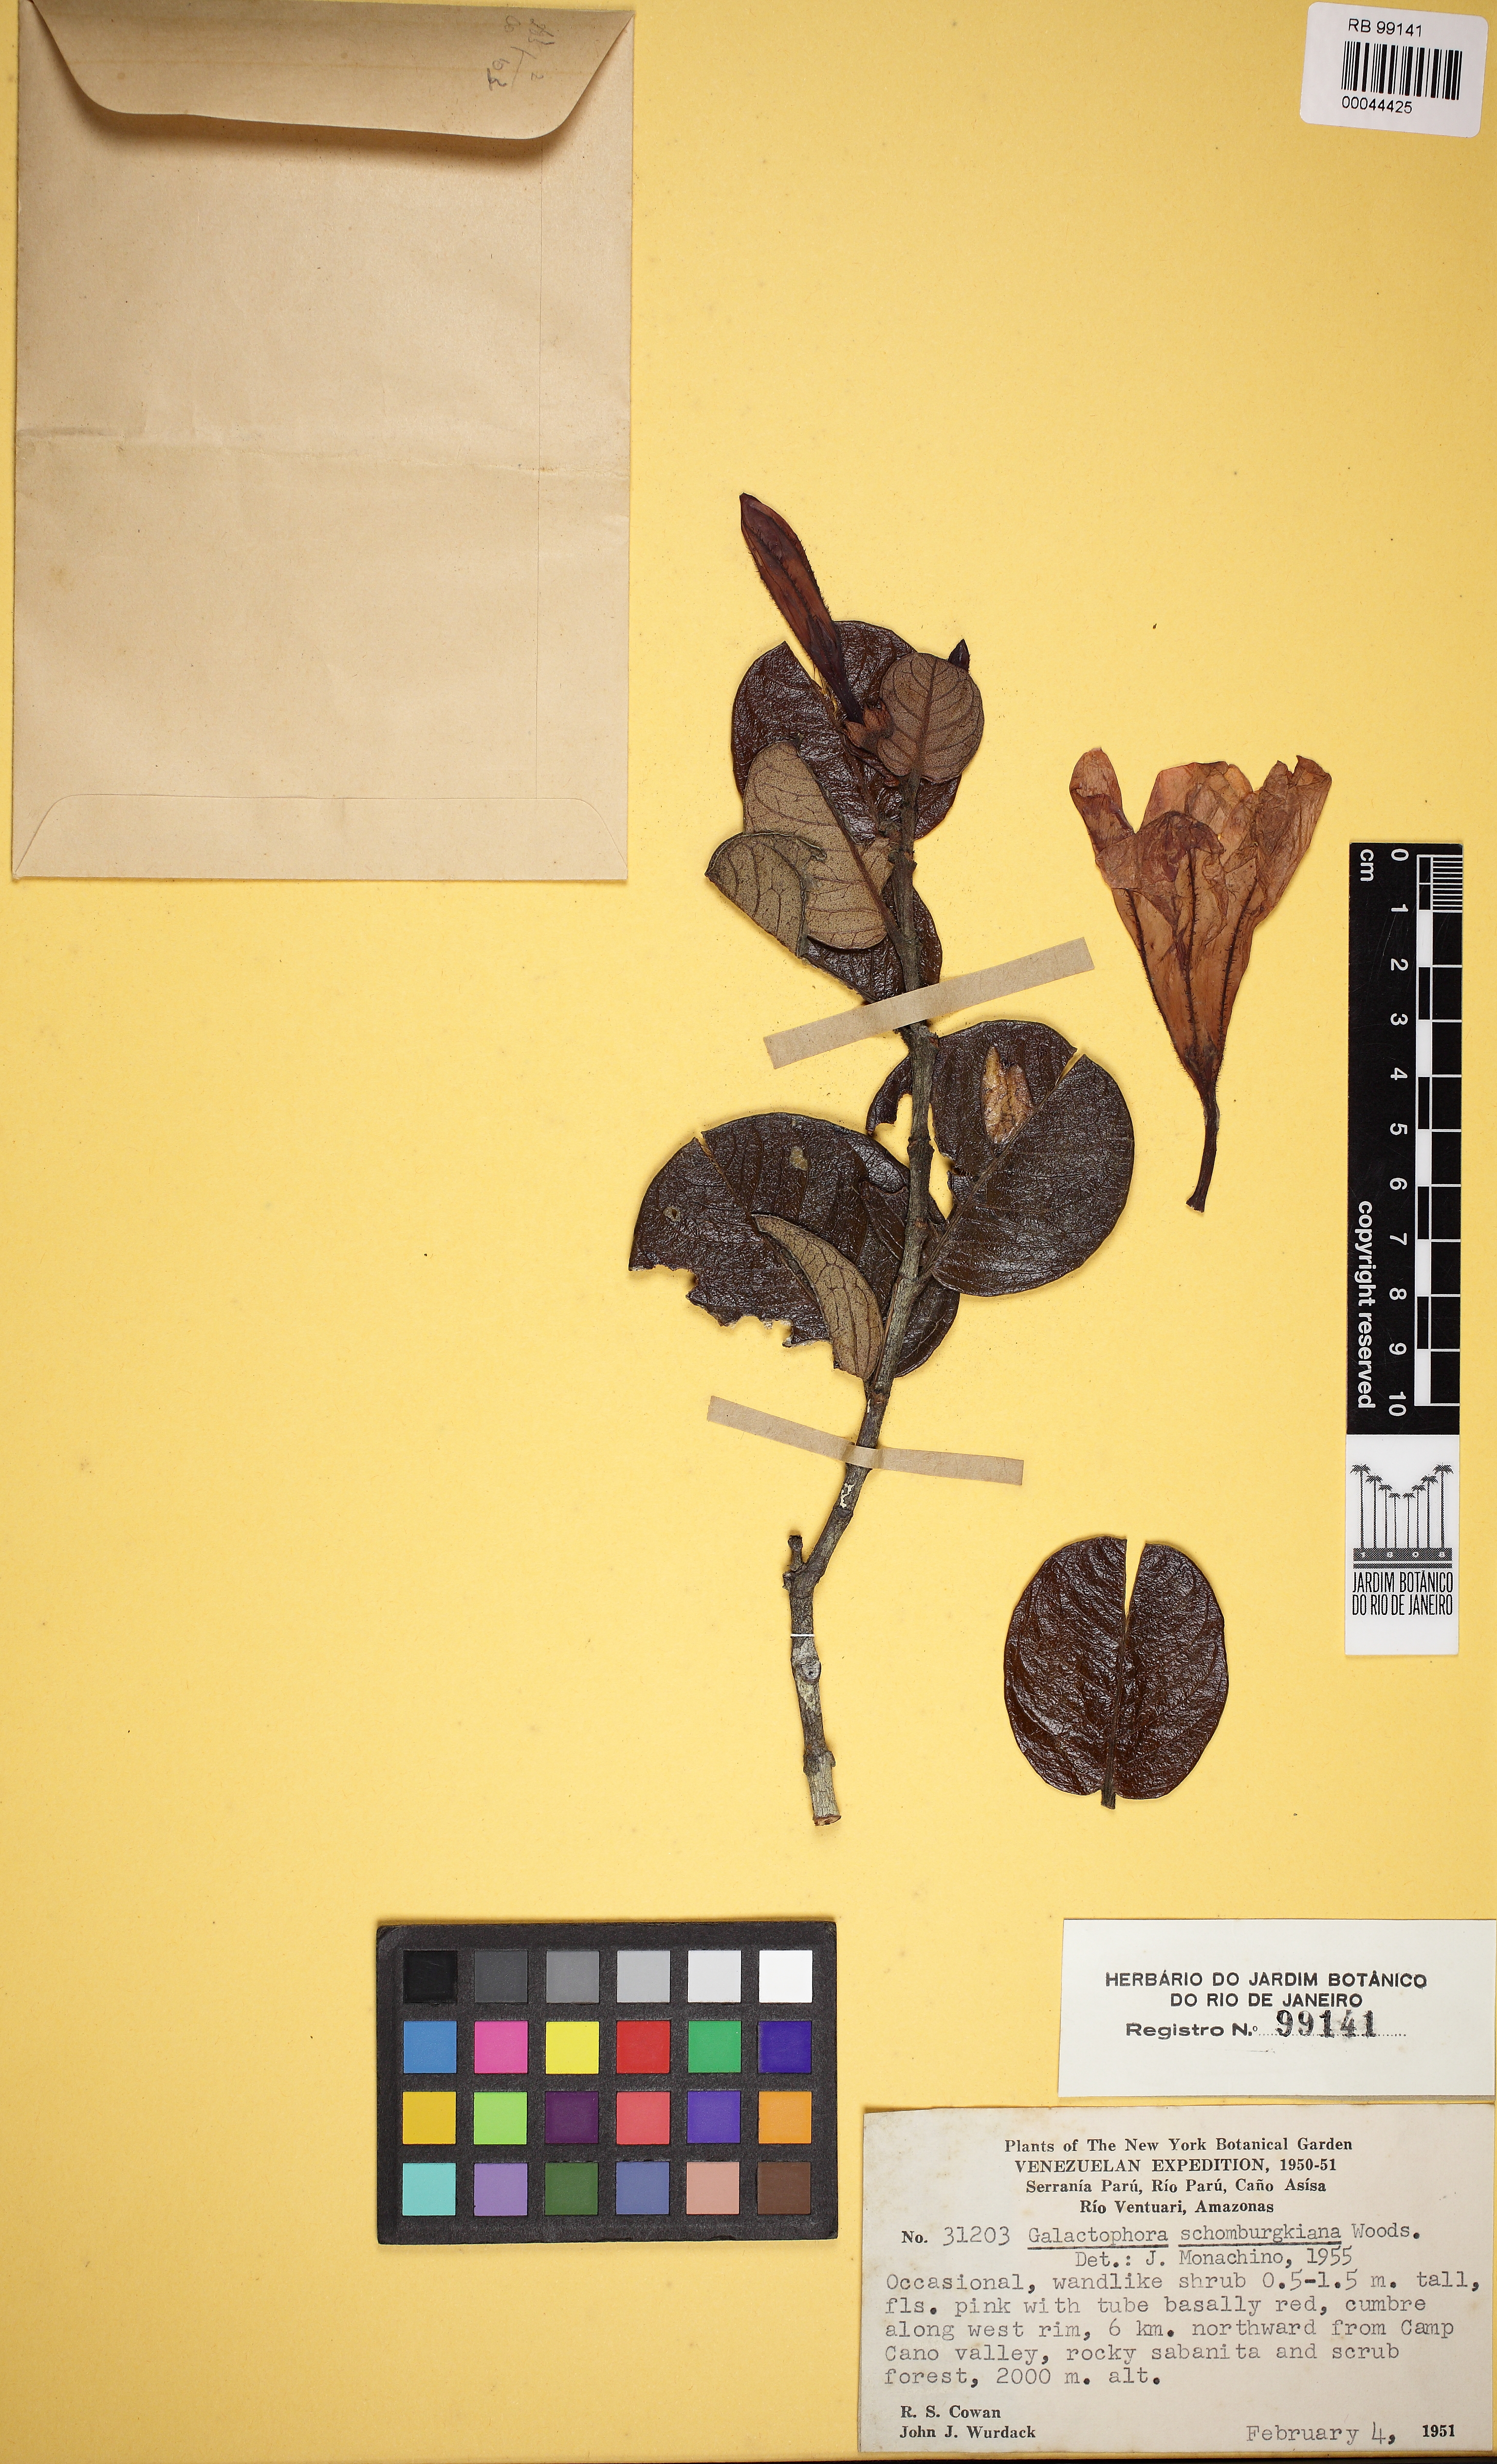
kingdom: Plantae
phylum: Tracheophyta
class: Magnoliopsida
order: Gentianales
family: Apocynaceae
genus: Galactophora
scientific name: Galactophora schomburgkiana
